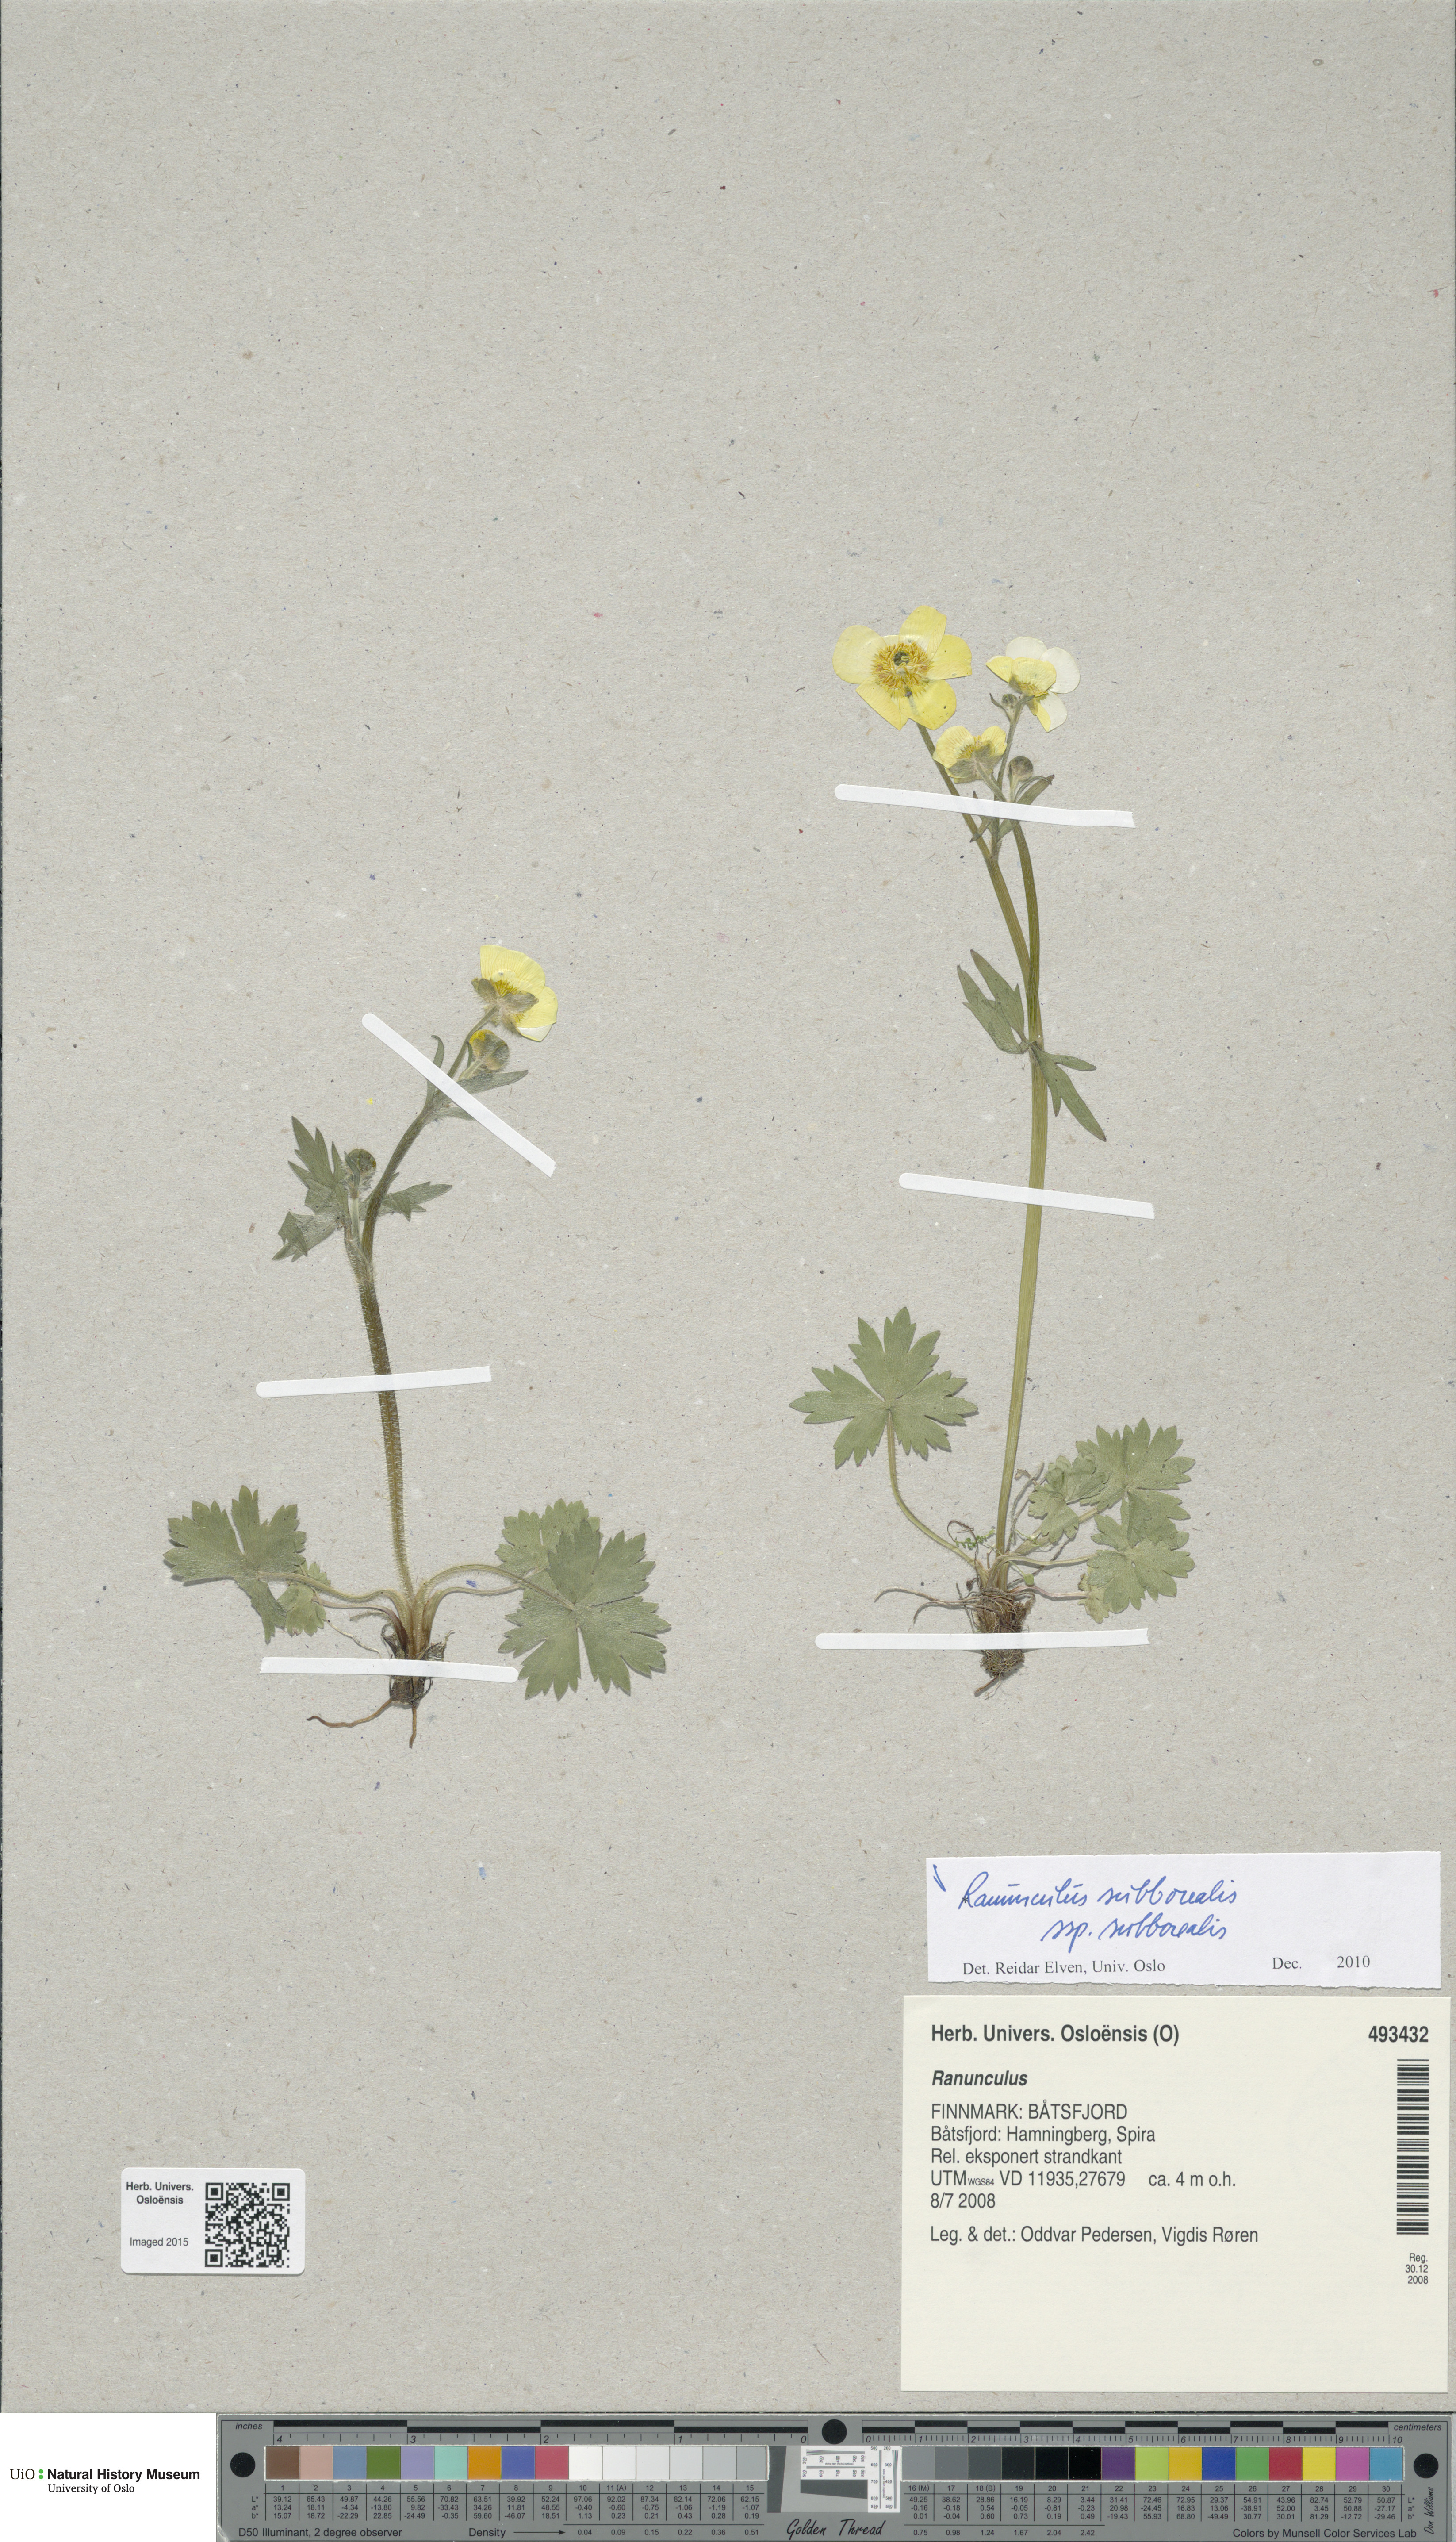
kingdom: Plantae
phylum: Tracheophyta
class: Magnoliopsida
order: Ranunculales
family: Ranunculaceae
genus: Ranunculus
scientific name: Ranunculus propinquus
